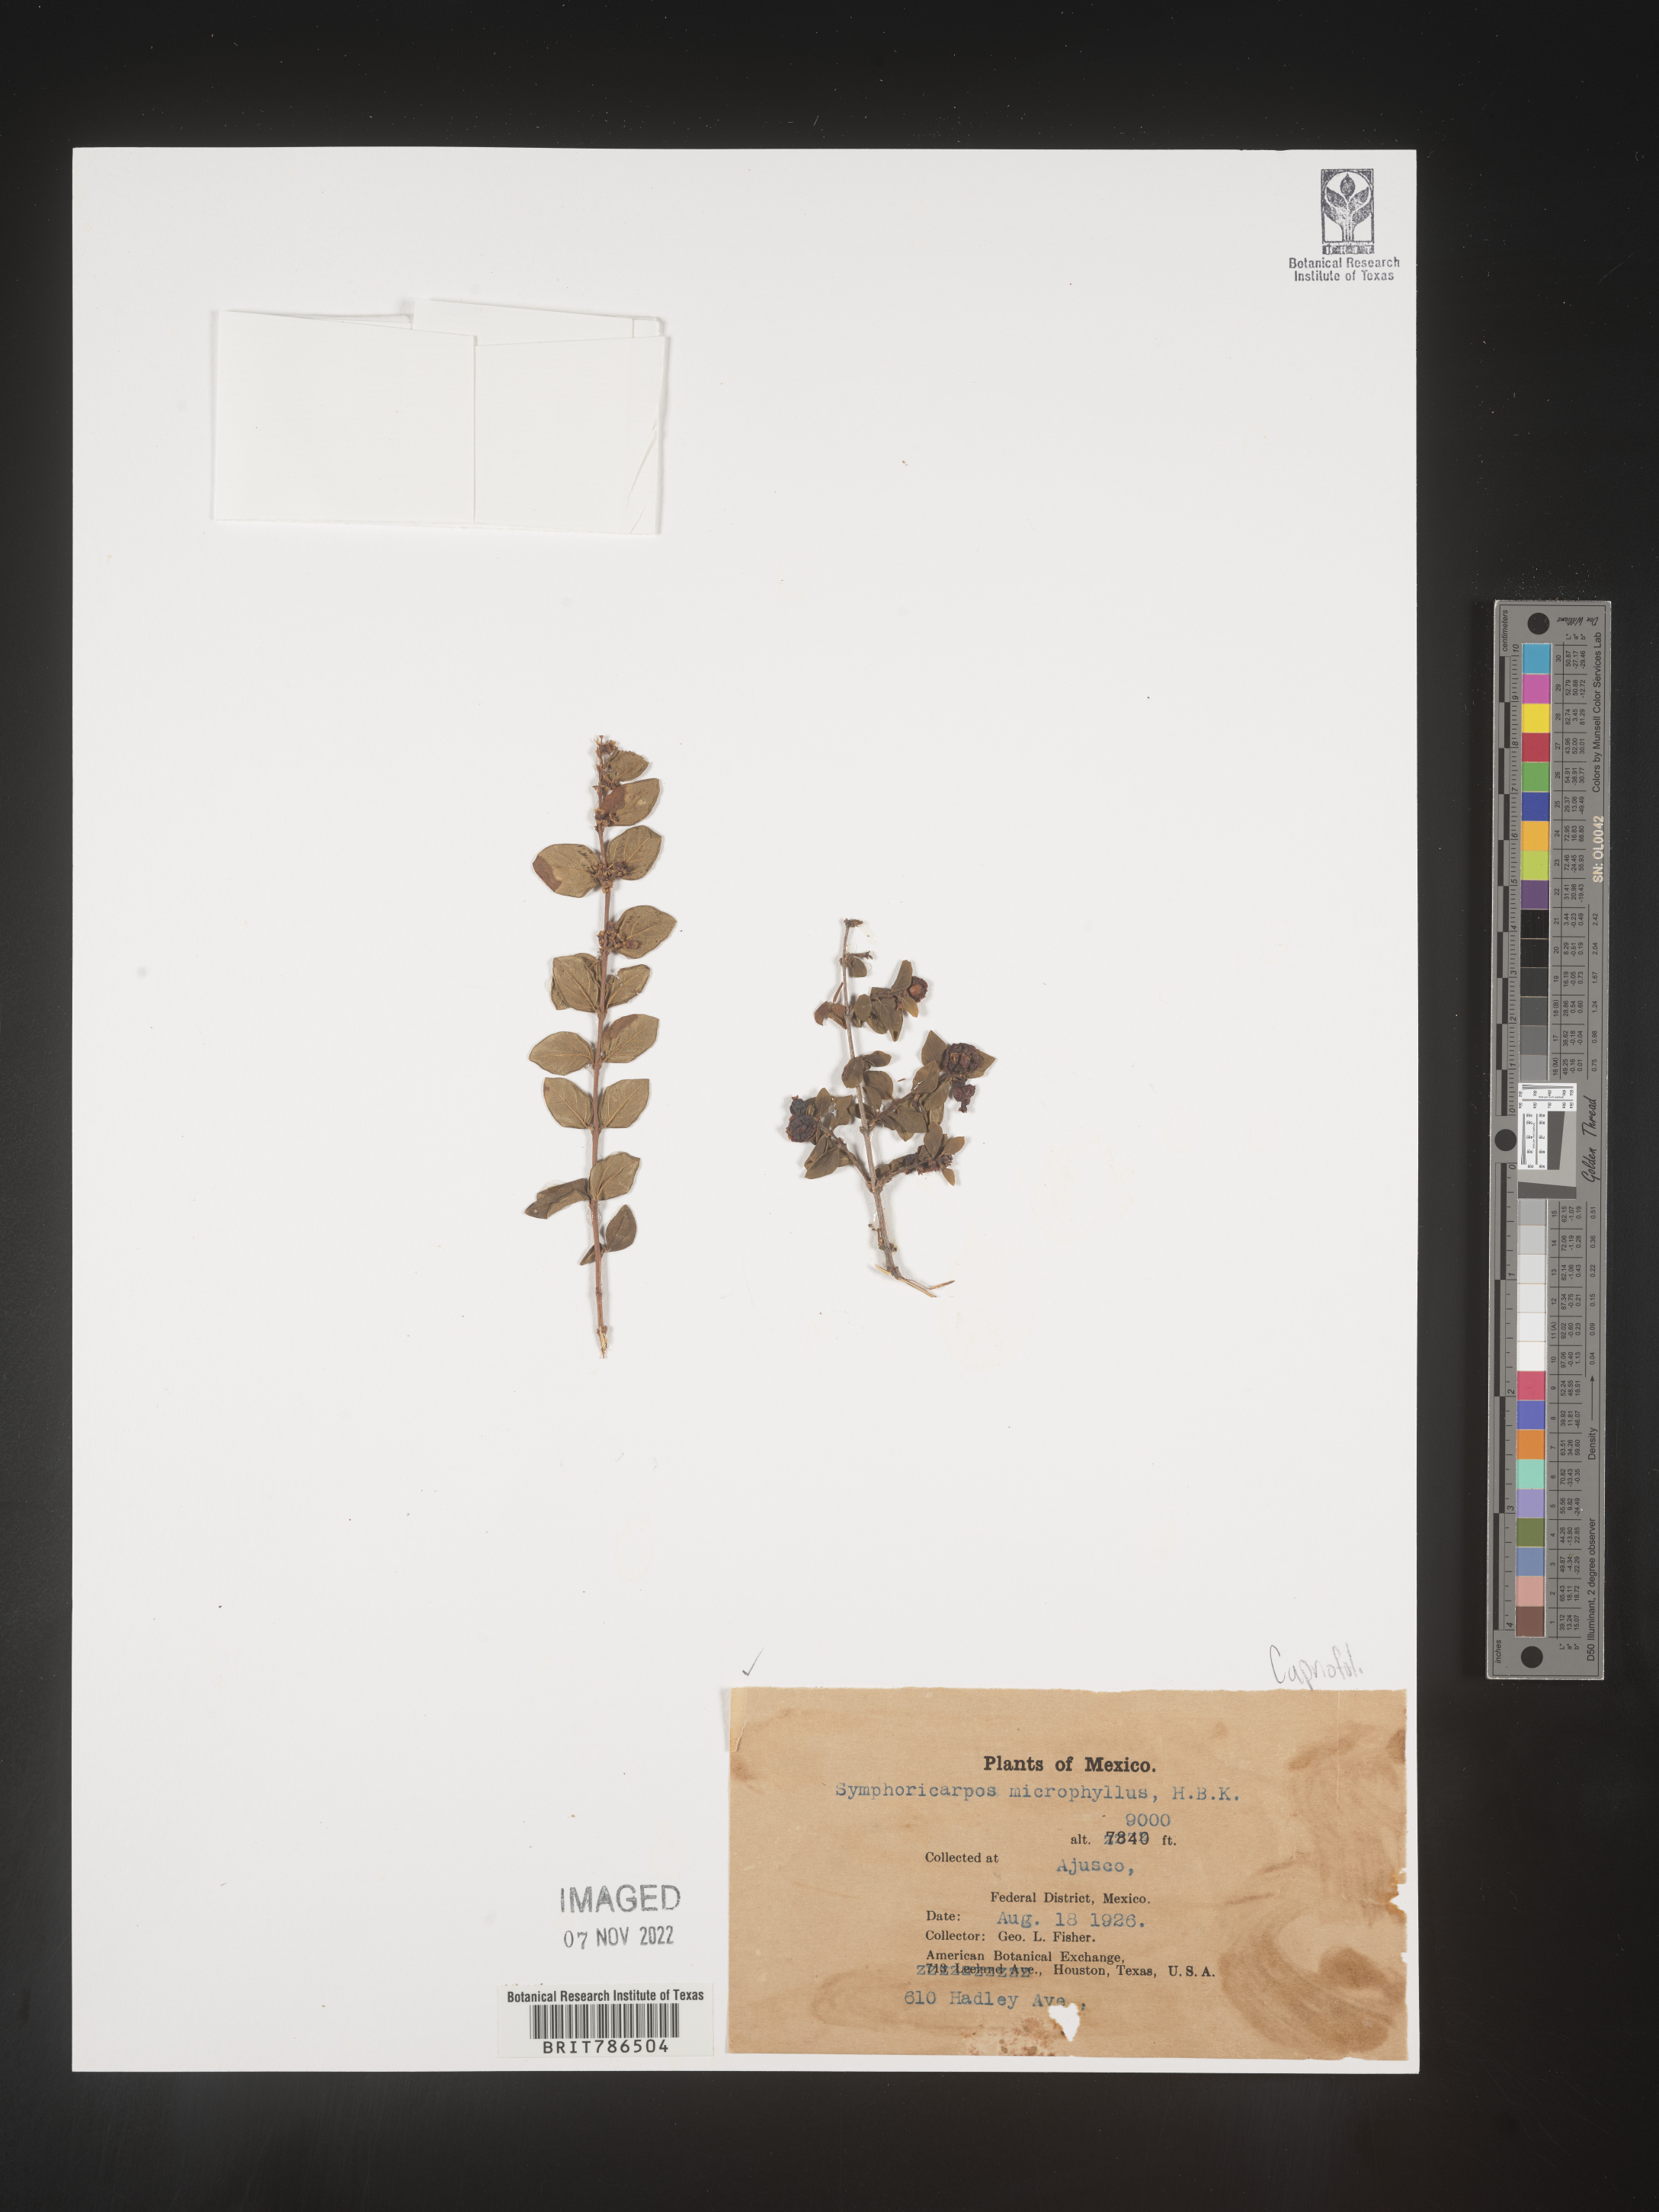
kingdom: Plantae
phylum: Tracheophyta
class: Magnoliopsida
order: Dipsacales
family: Caprifoliaceae
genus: Symphoricarpos
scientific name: Symphoricarpos
